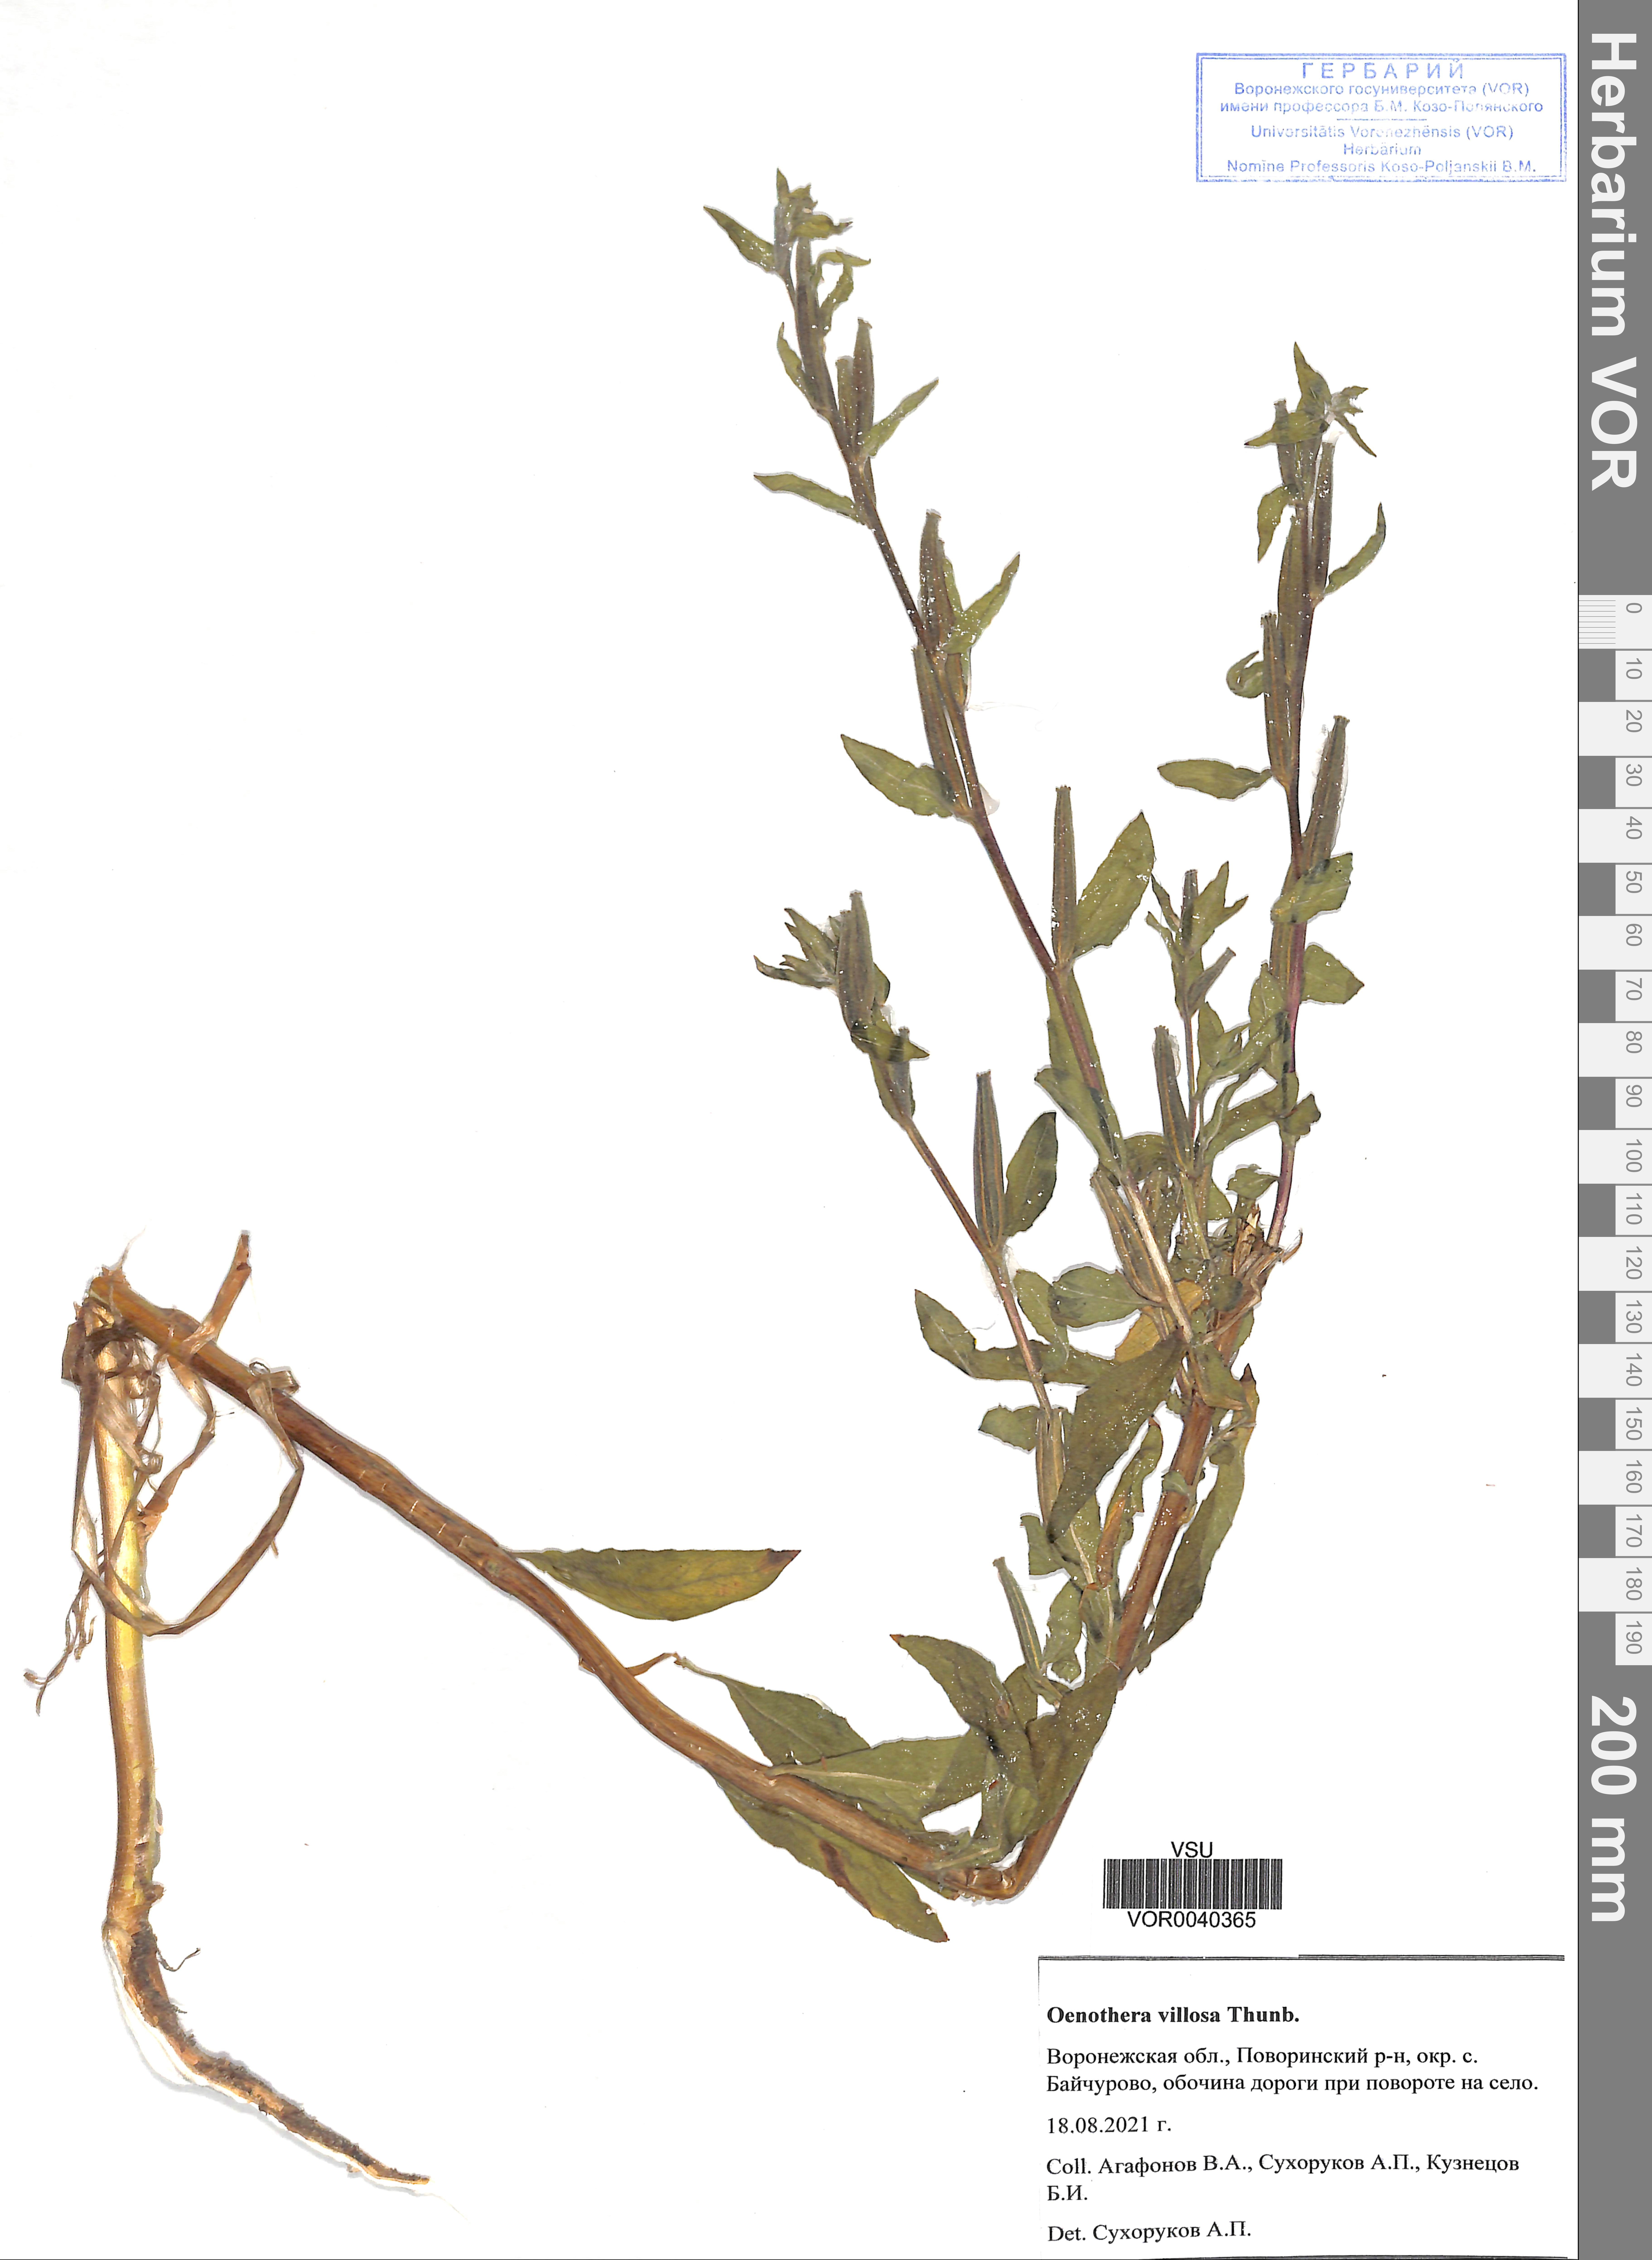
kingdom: Plantae
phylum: Tracheophyta
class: Magnoliopsida
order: Myrtales
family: Onagraceae
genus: Oenothera
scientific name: Oenothera villosa
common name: Hairy evening-primrose
